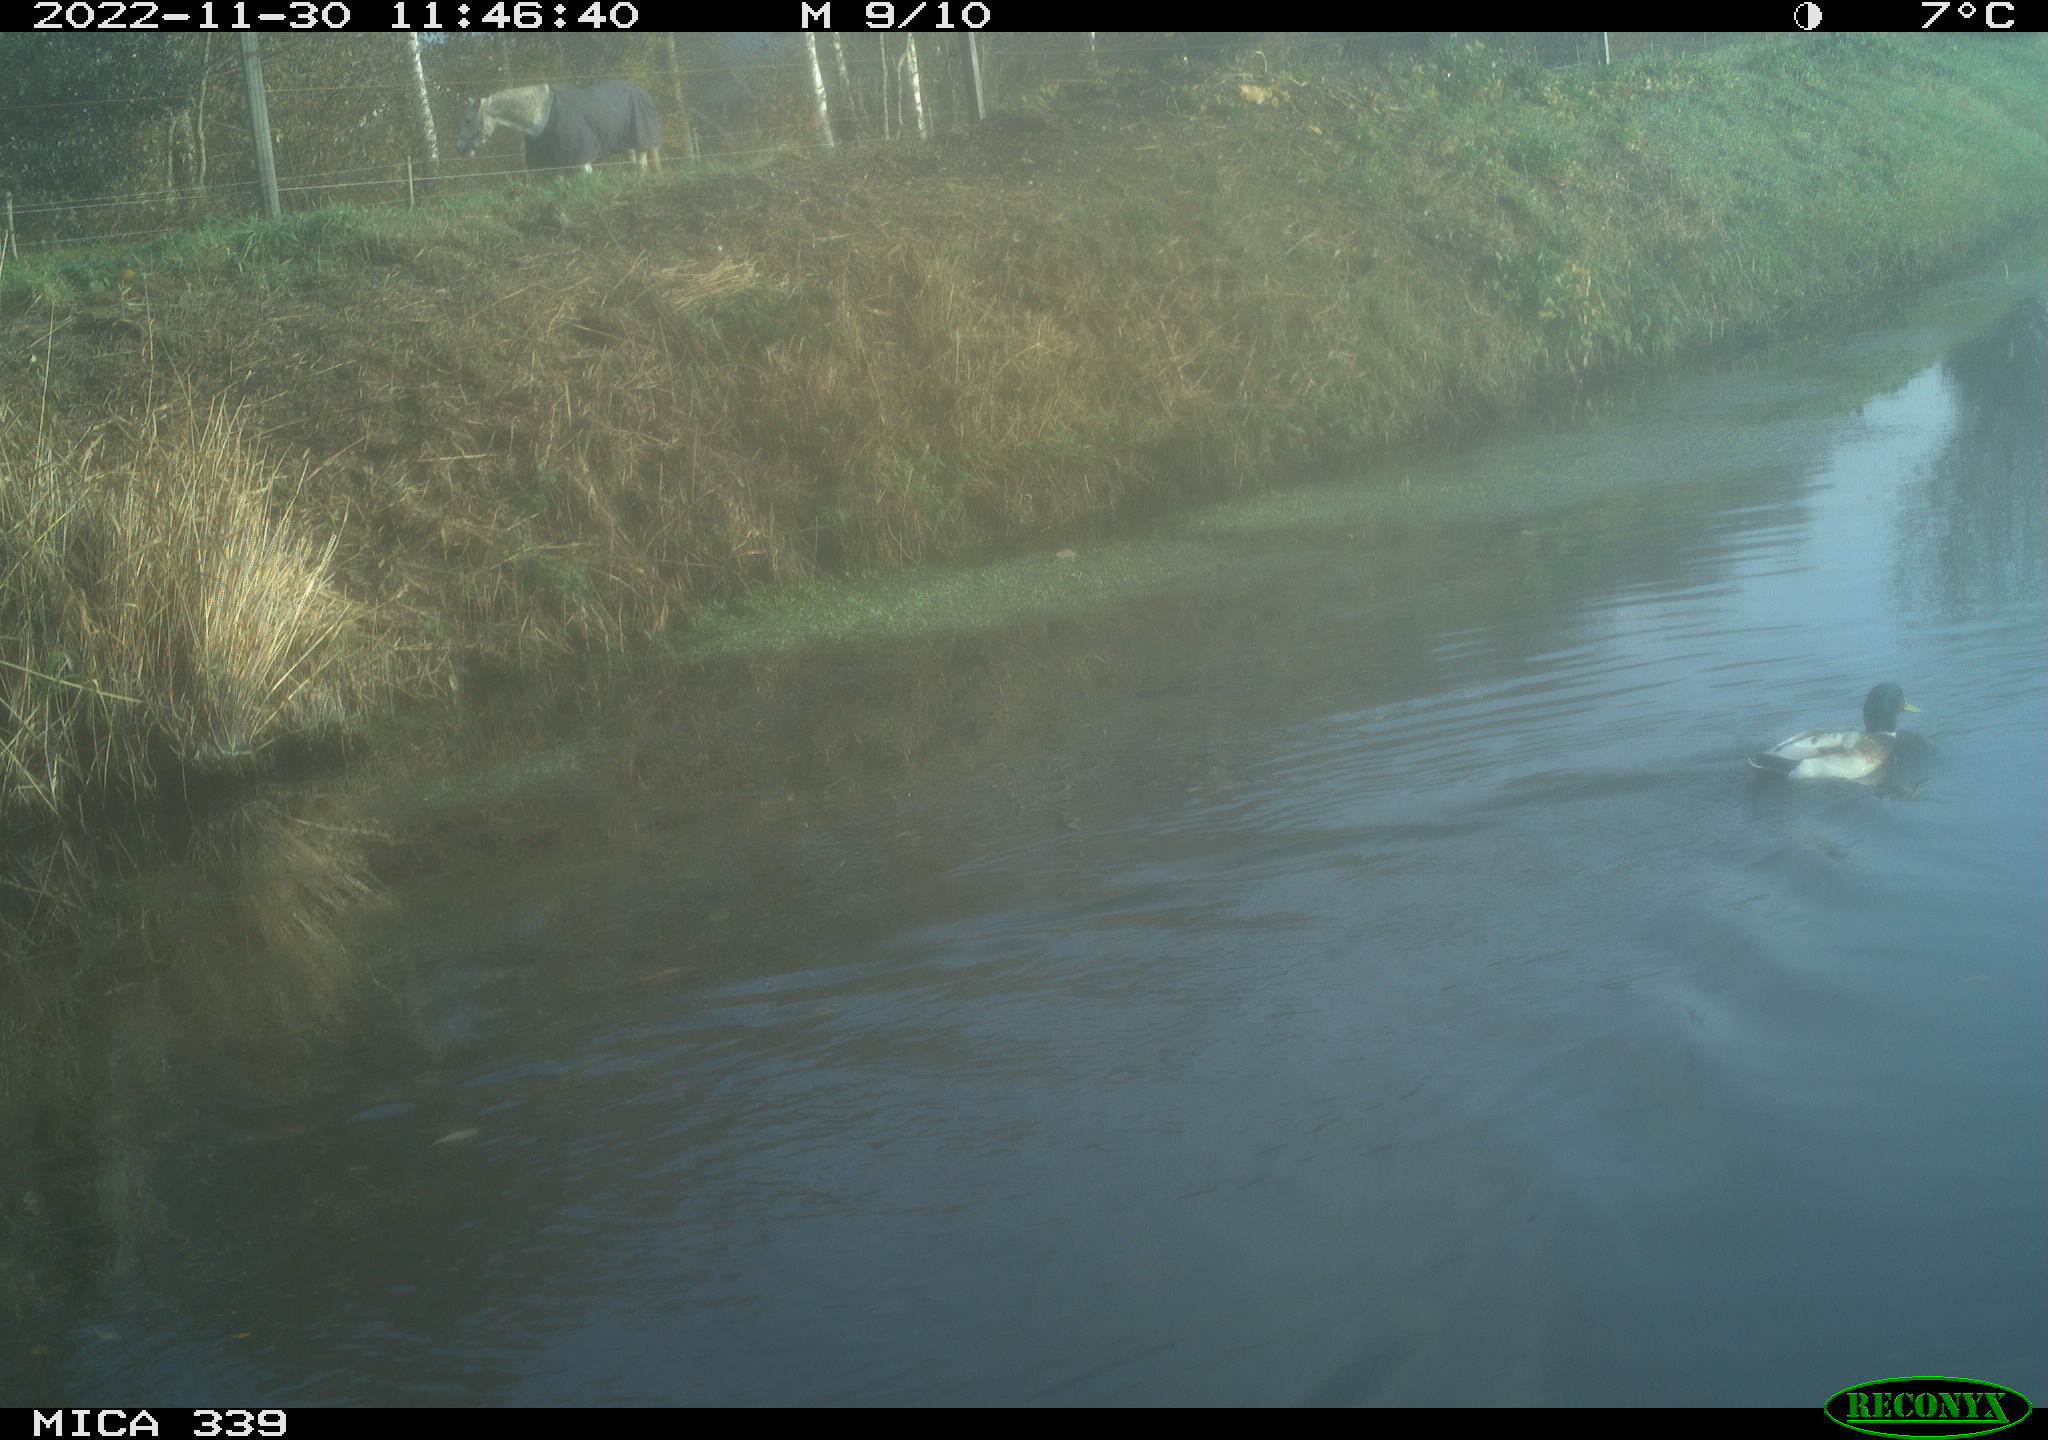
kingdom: Animalia
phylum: Chordata
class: Aves
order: Anseriformes
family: Anatidae
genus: Anas
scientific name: Anas
